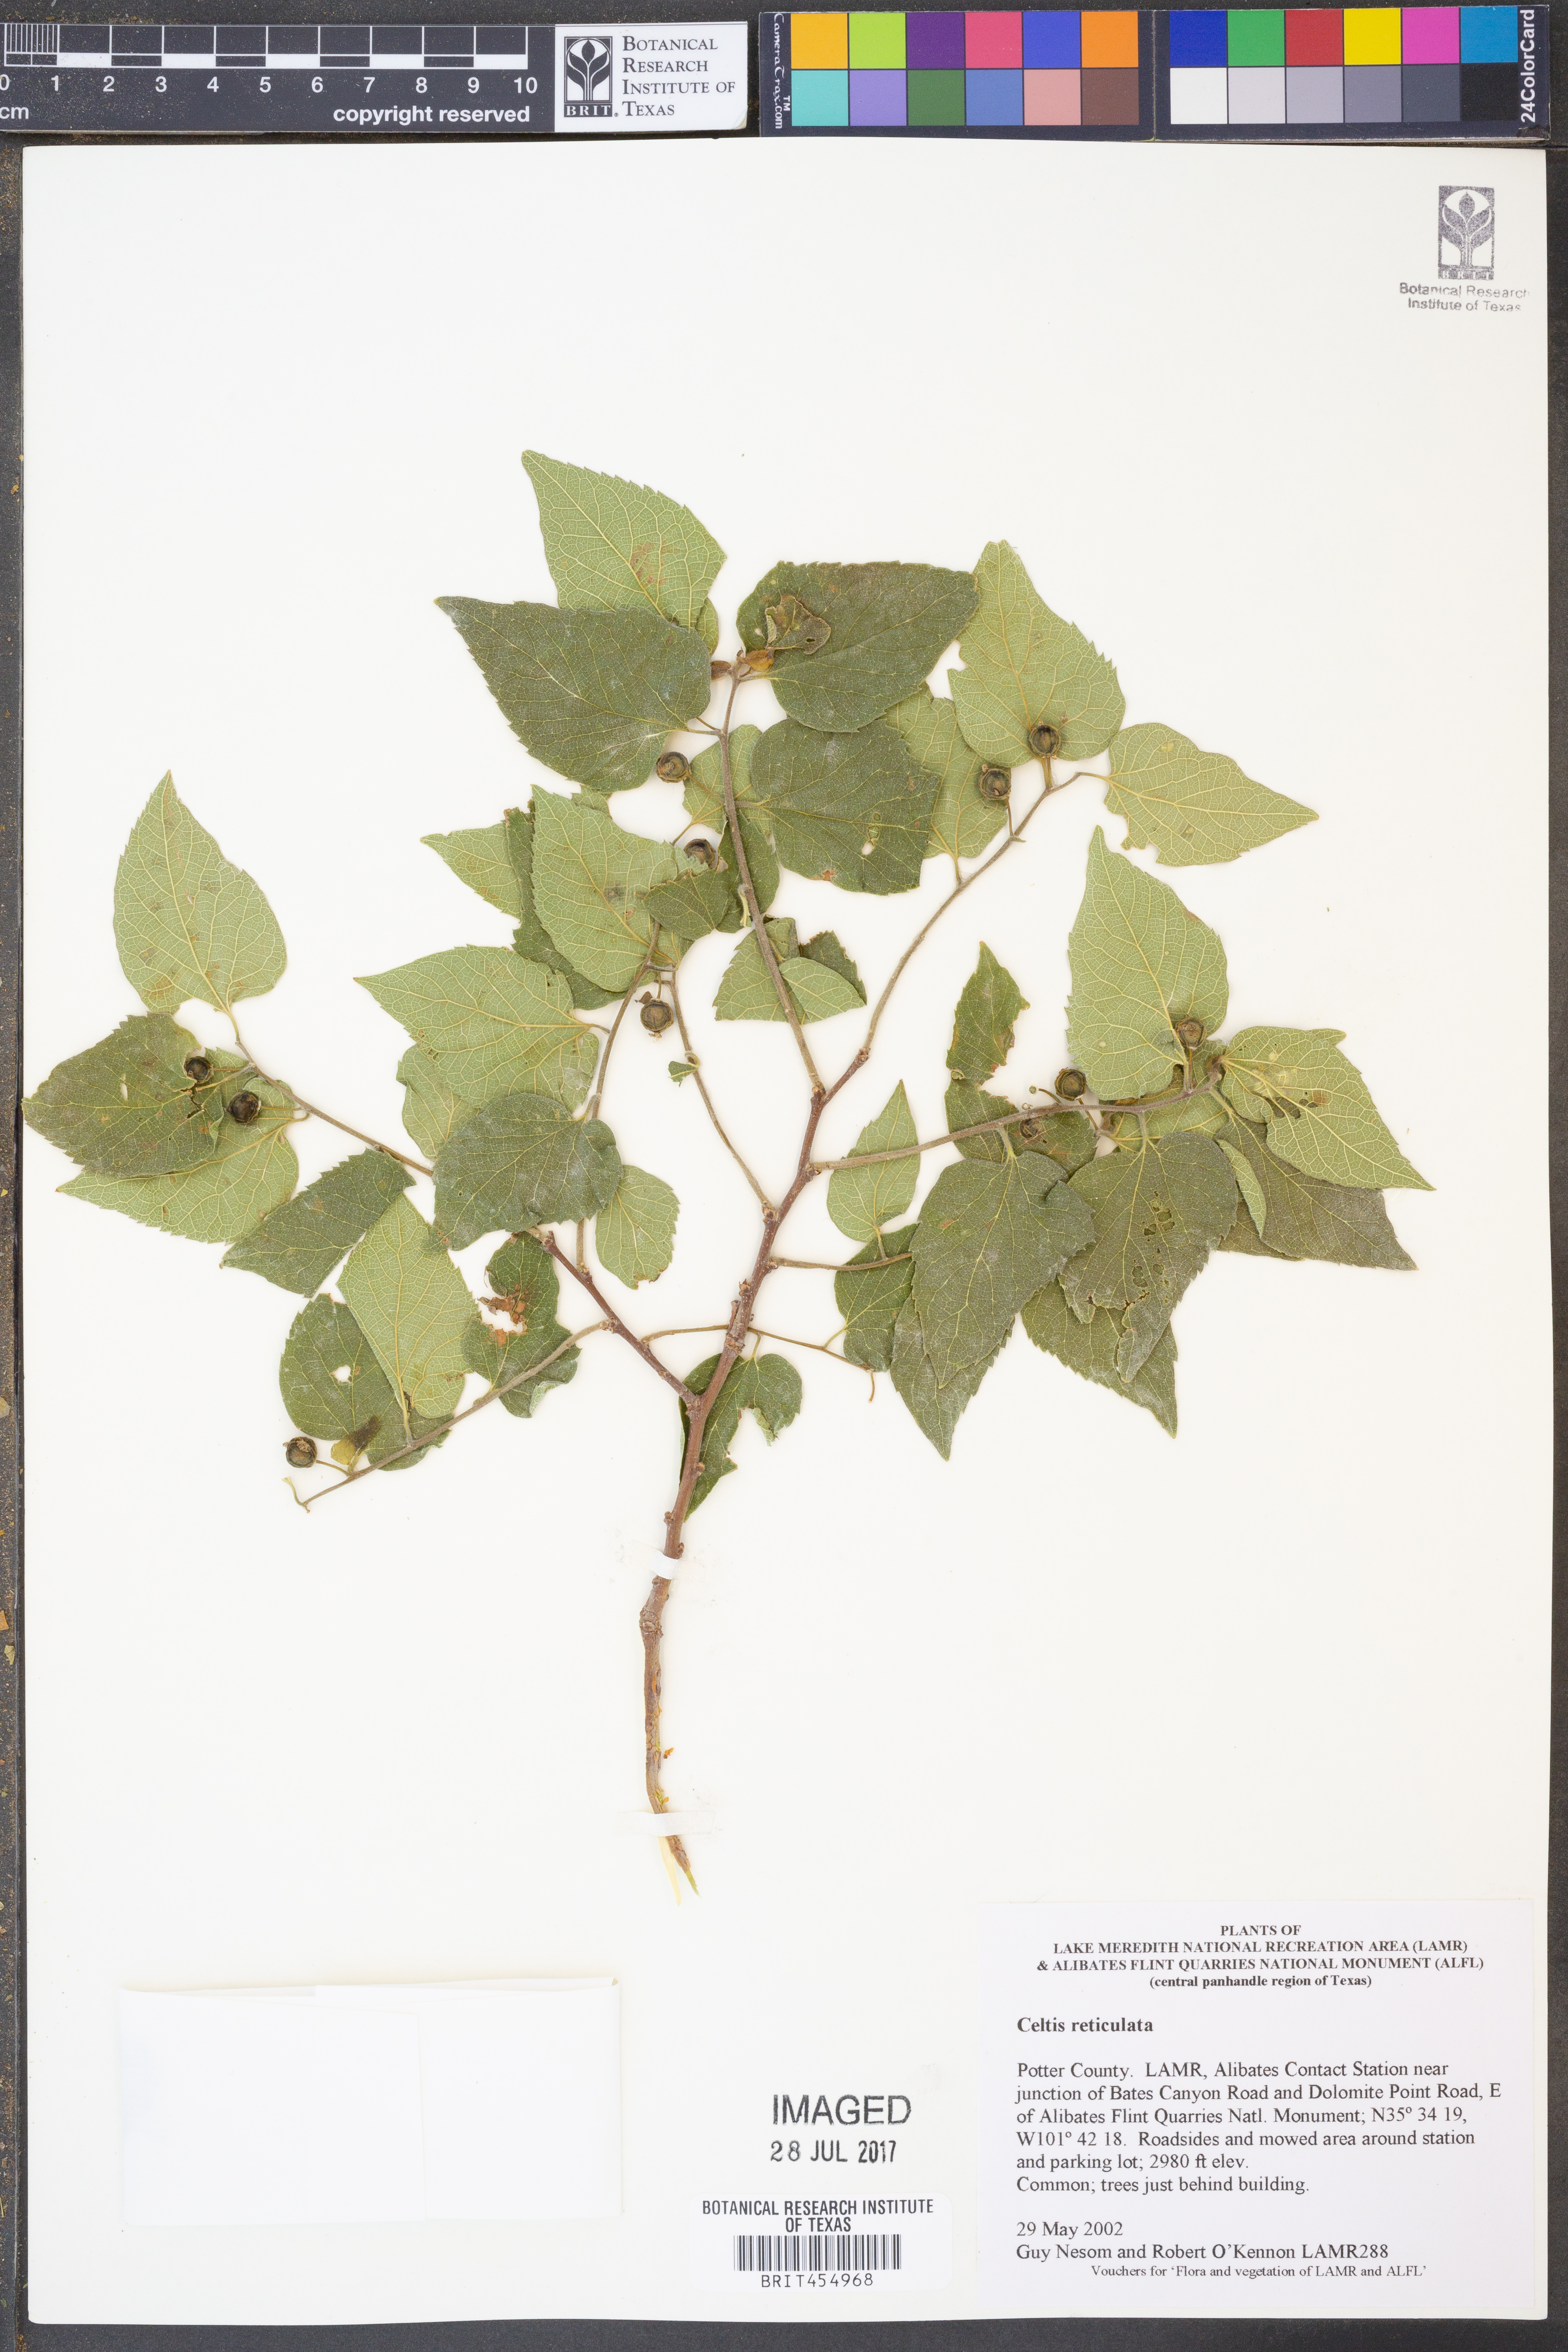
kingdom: Plantae
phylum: Tracheophyta
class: Magnoliopsida
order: Rosales
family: Cannabaceae
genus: Celtis
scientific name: Celtis reticulata
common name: Netleaf hackberry
